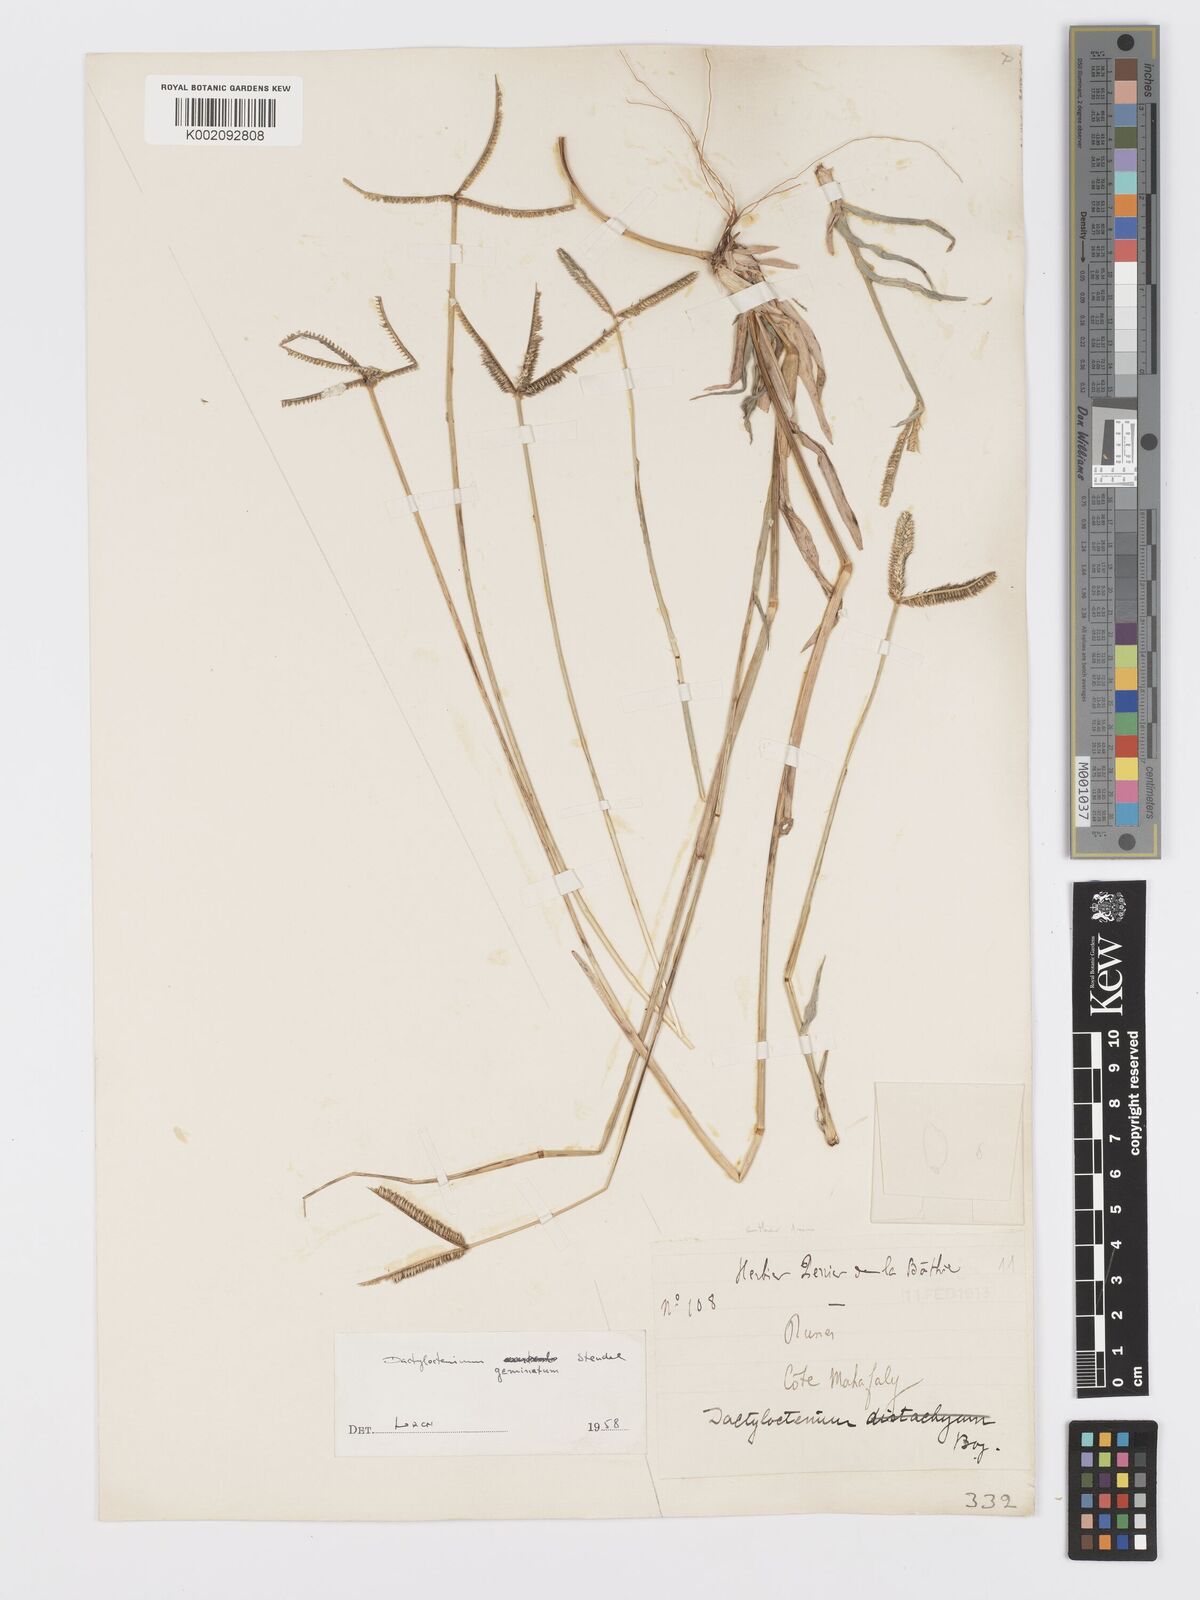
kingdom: Plantae
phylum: Tracheophyta
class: Liliopsida
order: Poales
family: Poaceae
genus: Dactyloctenium
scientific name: Dactyloctenium geminatum
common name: Crowsfoot grass
